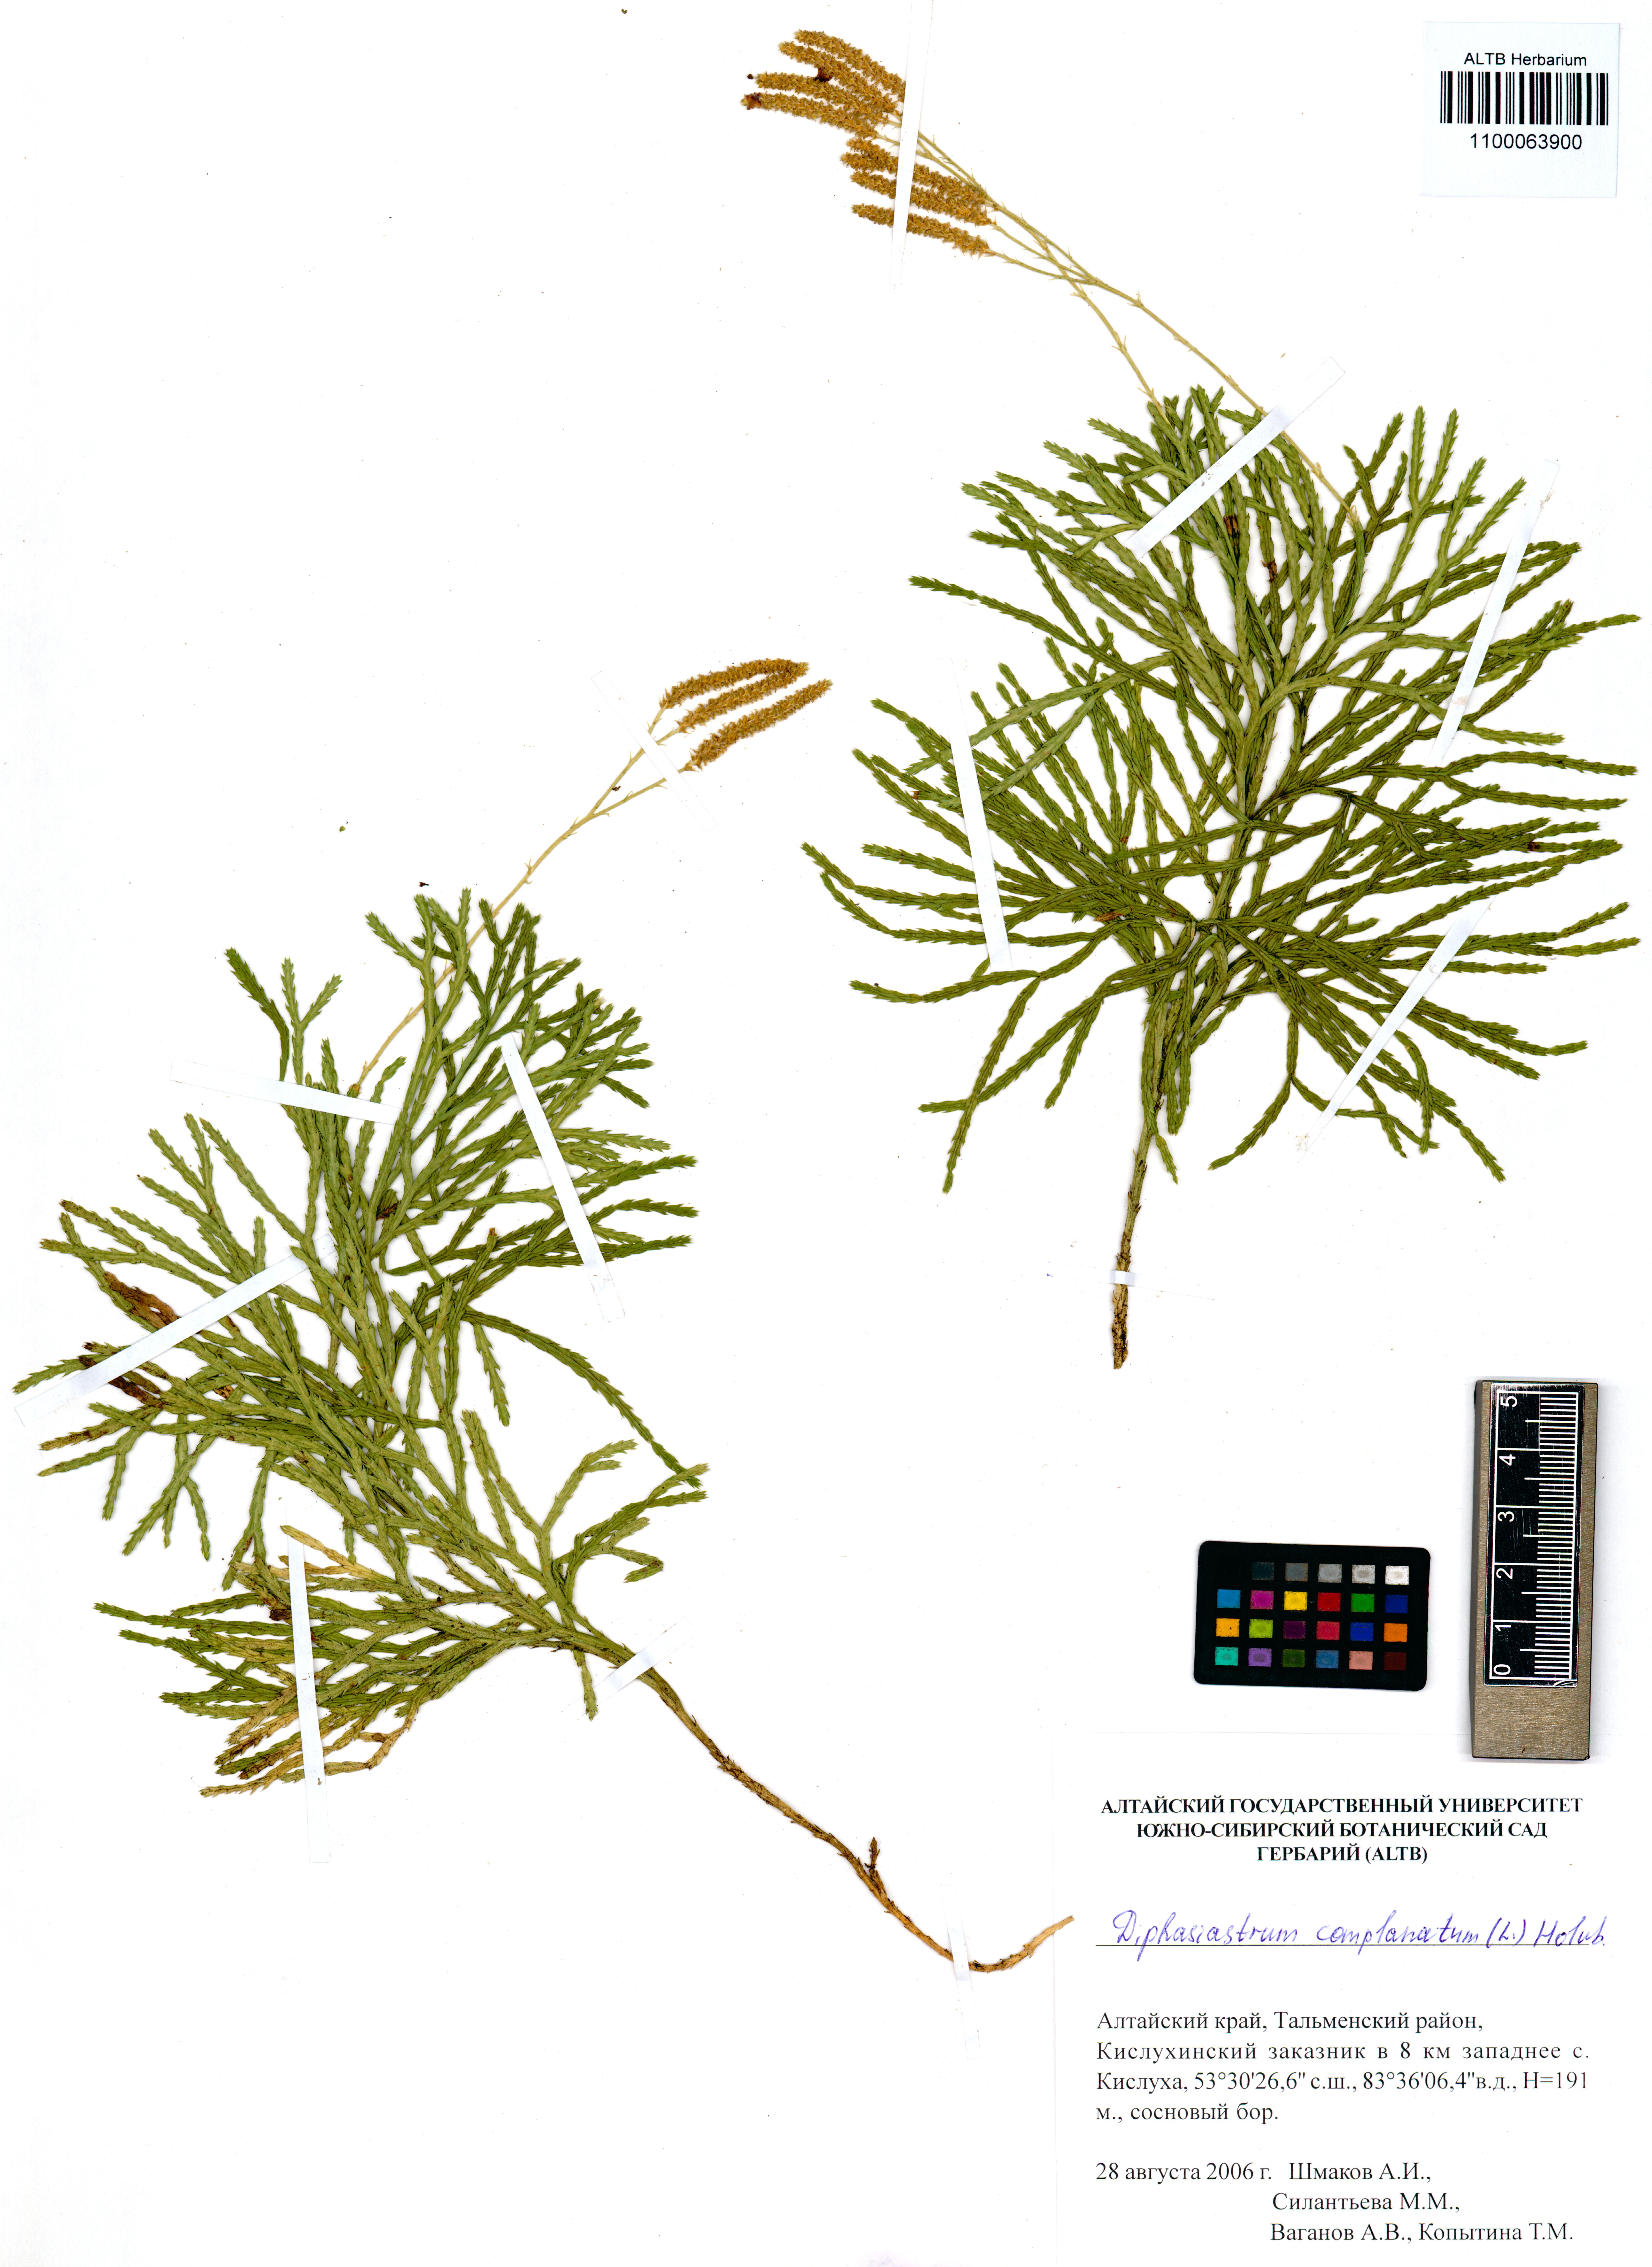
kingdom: Plantae
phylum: Tracheophyta
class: Lycopodiopsida
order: Lycopodiales
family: Lycopodiaceae
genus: Diphasiastrum
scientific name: Diphasiastrum complanatum
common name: Northern running-pine
